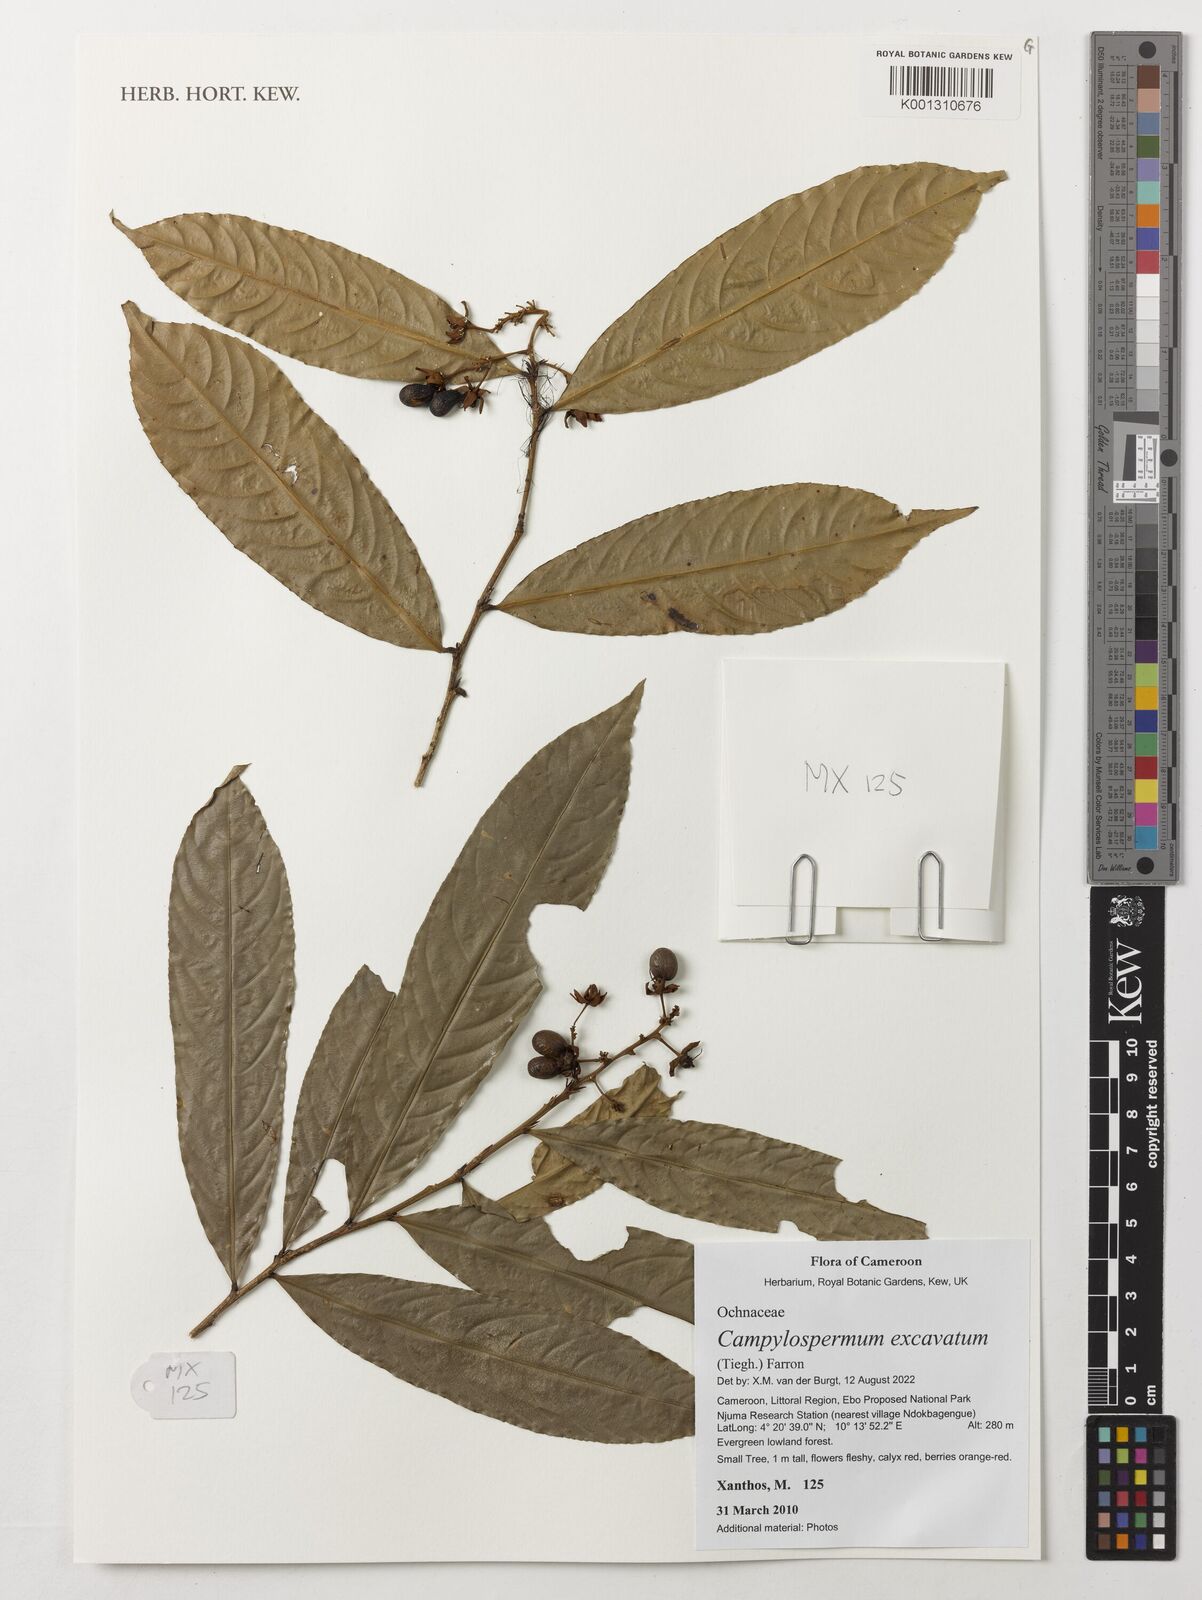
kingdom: Plantae
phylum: Tracheophyta
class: Magnoliopsida
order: Malpighiales
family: Ochnaceae
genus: Campylospermum
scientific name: Campylospermum excavatum
